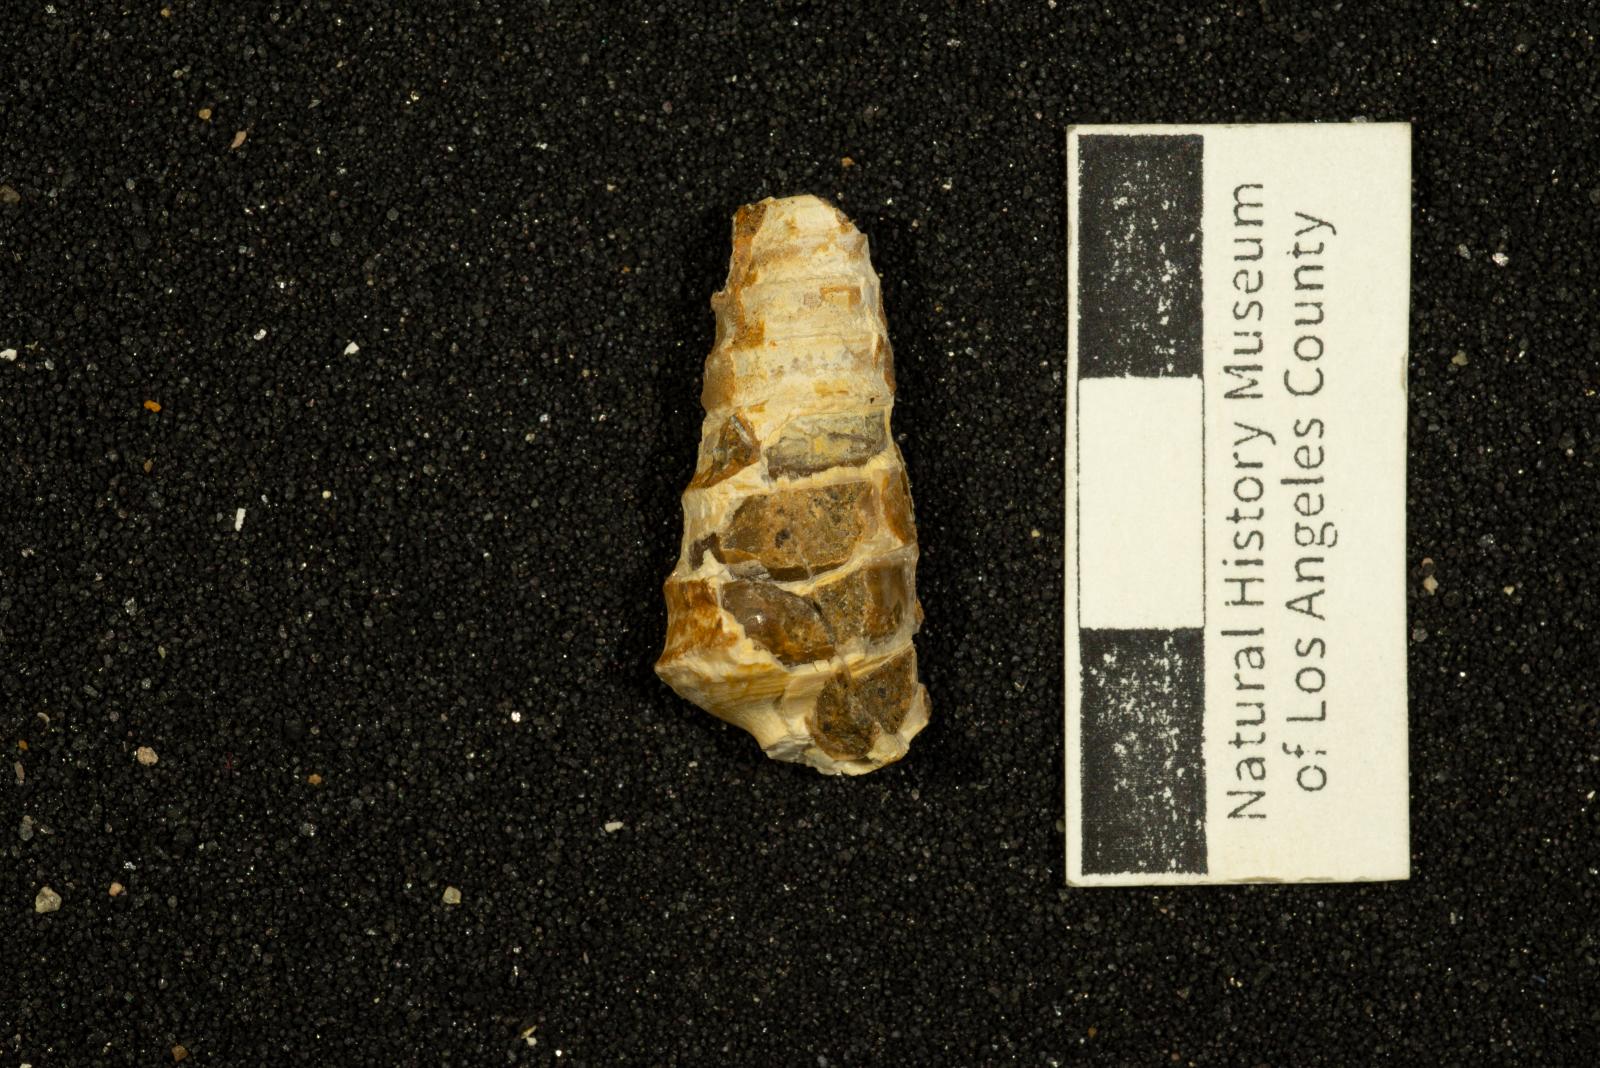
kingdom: Animalia
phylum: Mollusca
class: Gastropoda
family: Nerineidae
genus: Aphanoptyxis
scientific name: Aphanoptyxis californica
